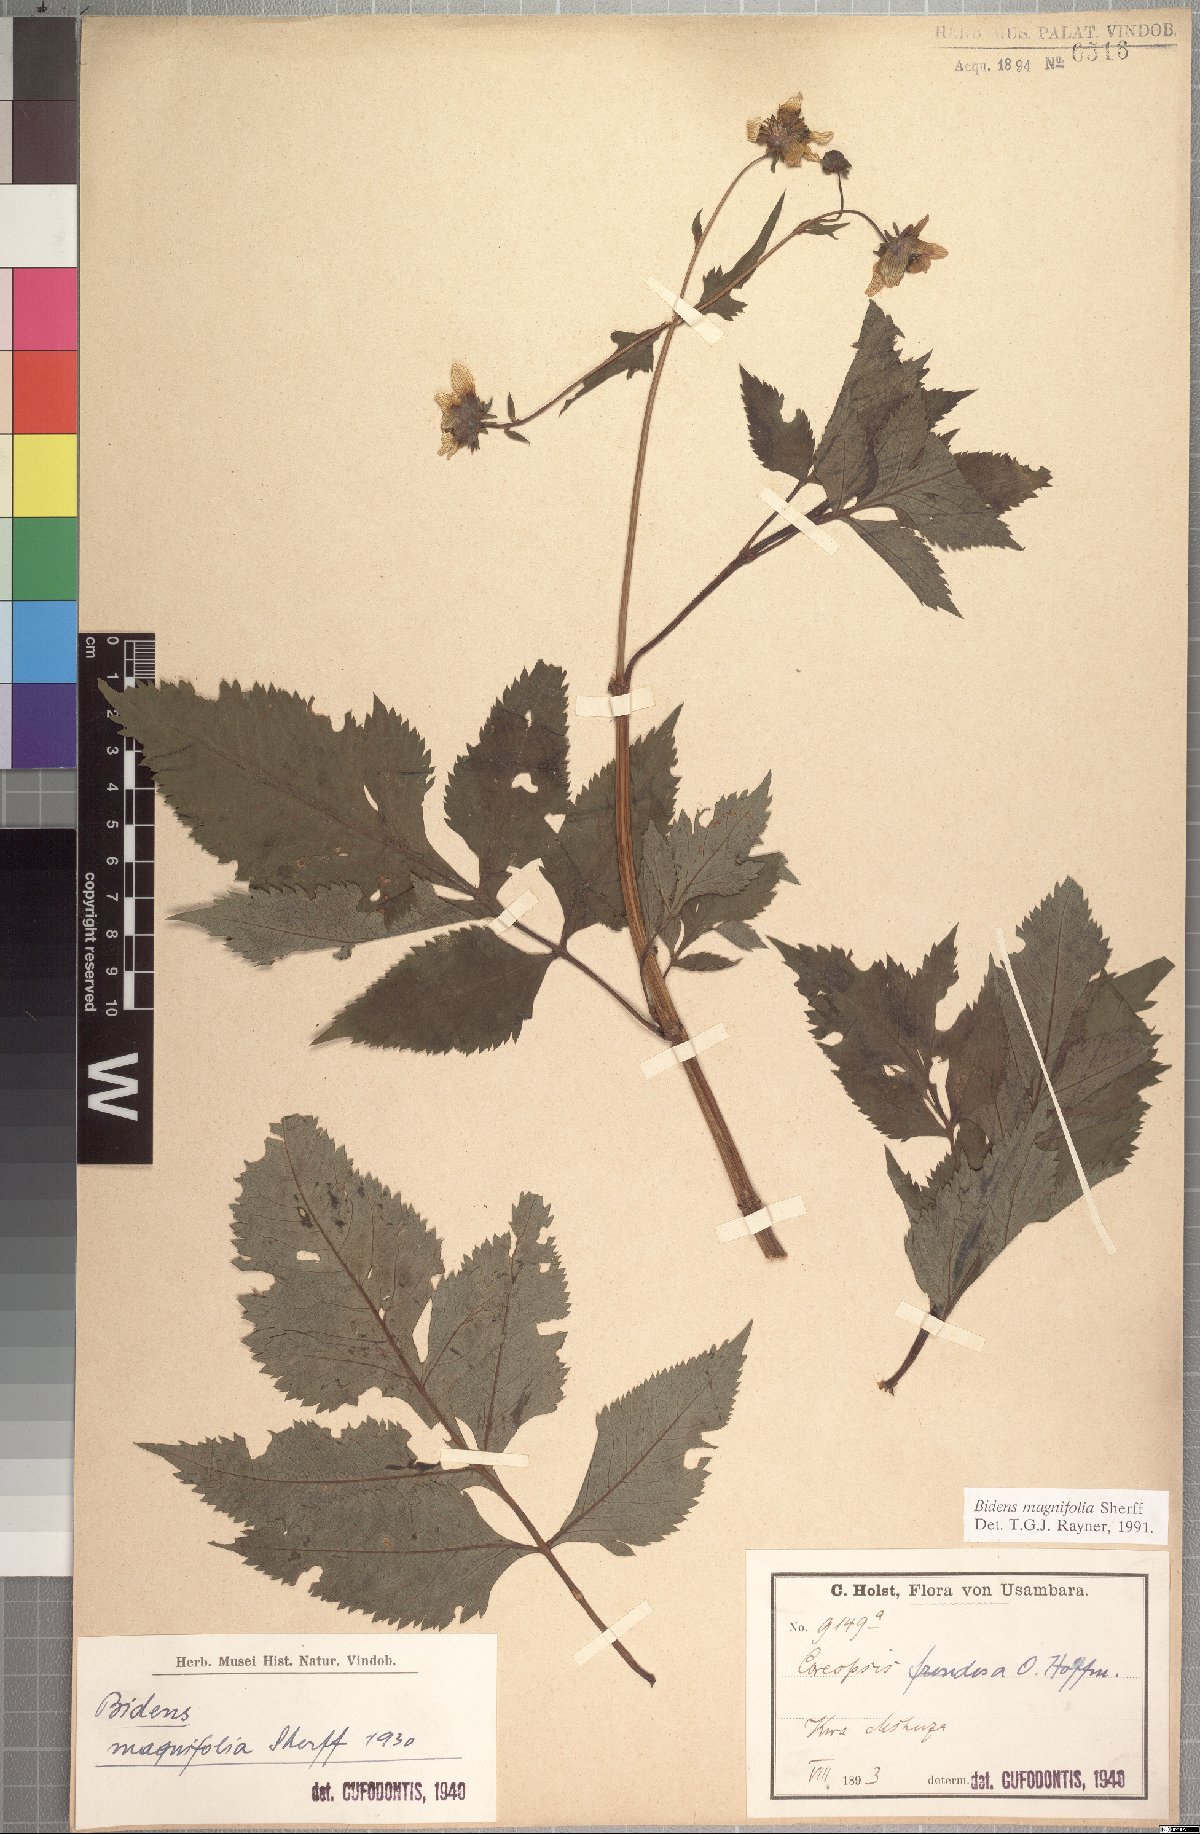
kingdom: Plantae
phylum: Tracheophyta
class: Magnoliopsida
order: Asterales
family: Asteraceae
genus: Bidens
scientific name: Bidens magnifolia
